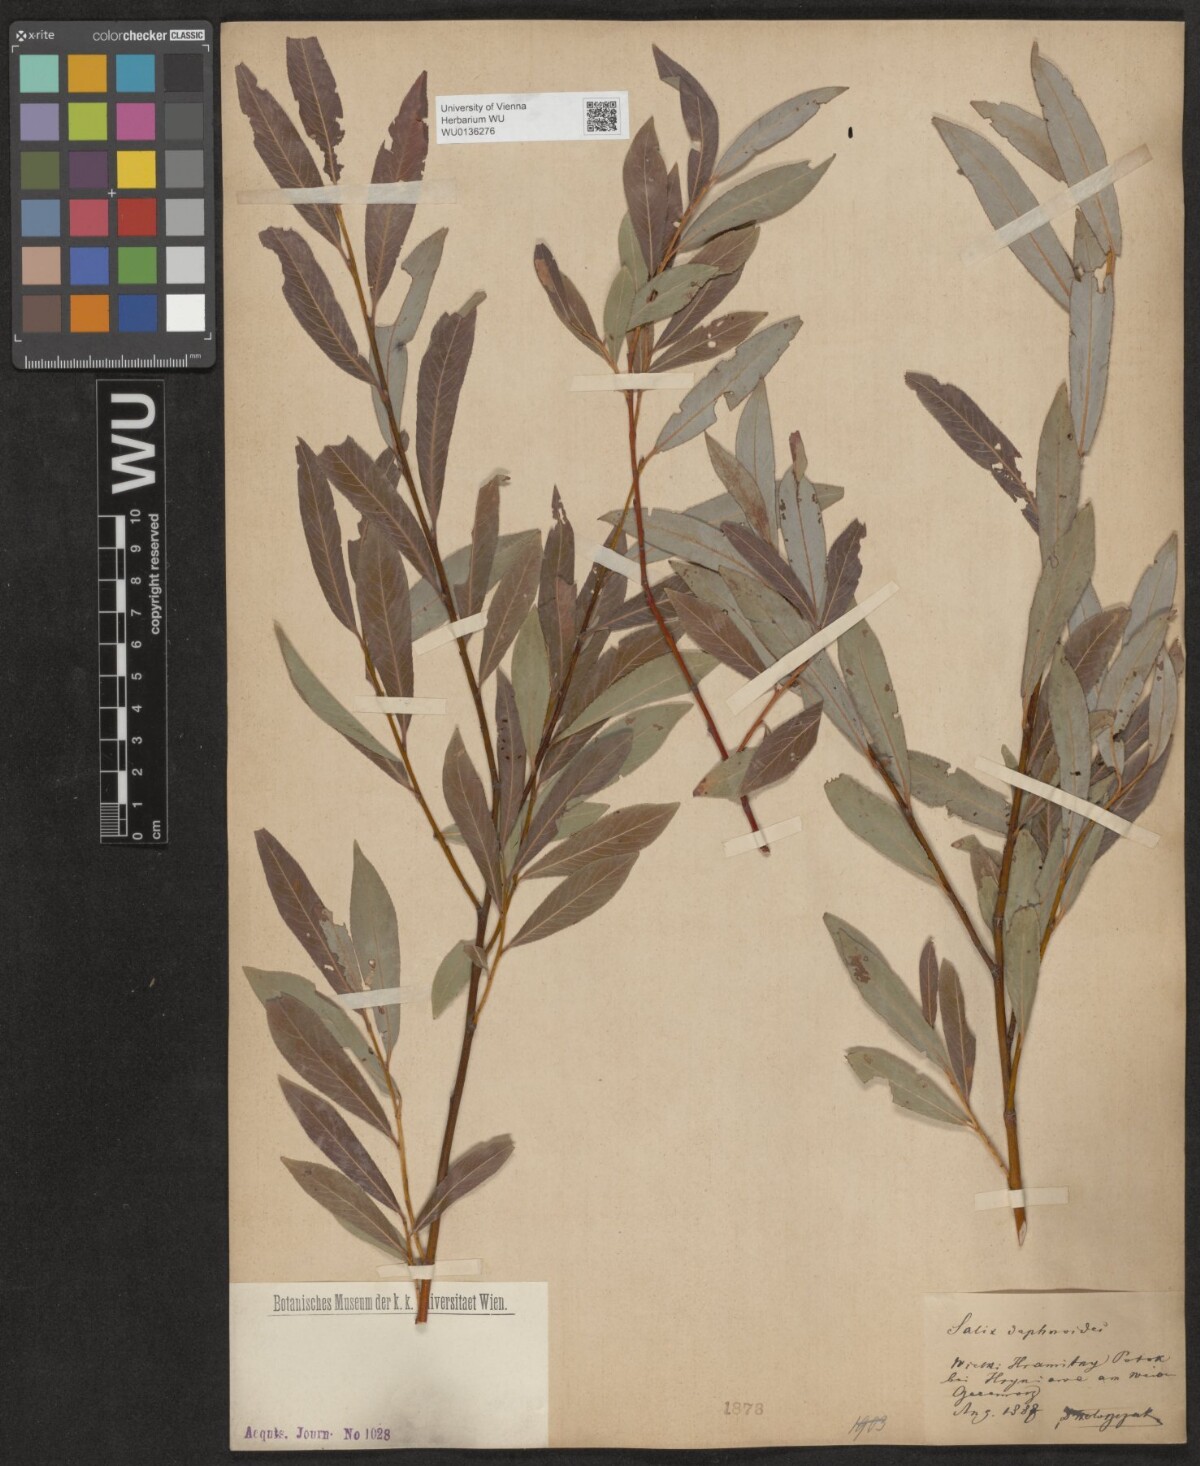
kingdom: Plantae
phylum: Tracheophyta
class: Magnoliopsida
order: Malpighiales
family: Salicaceae
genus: Salix
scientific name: Salix daphnoides
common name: European violet-willow
